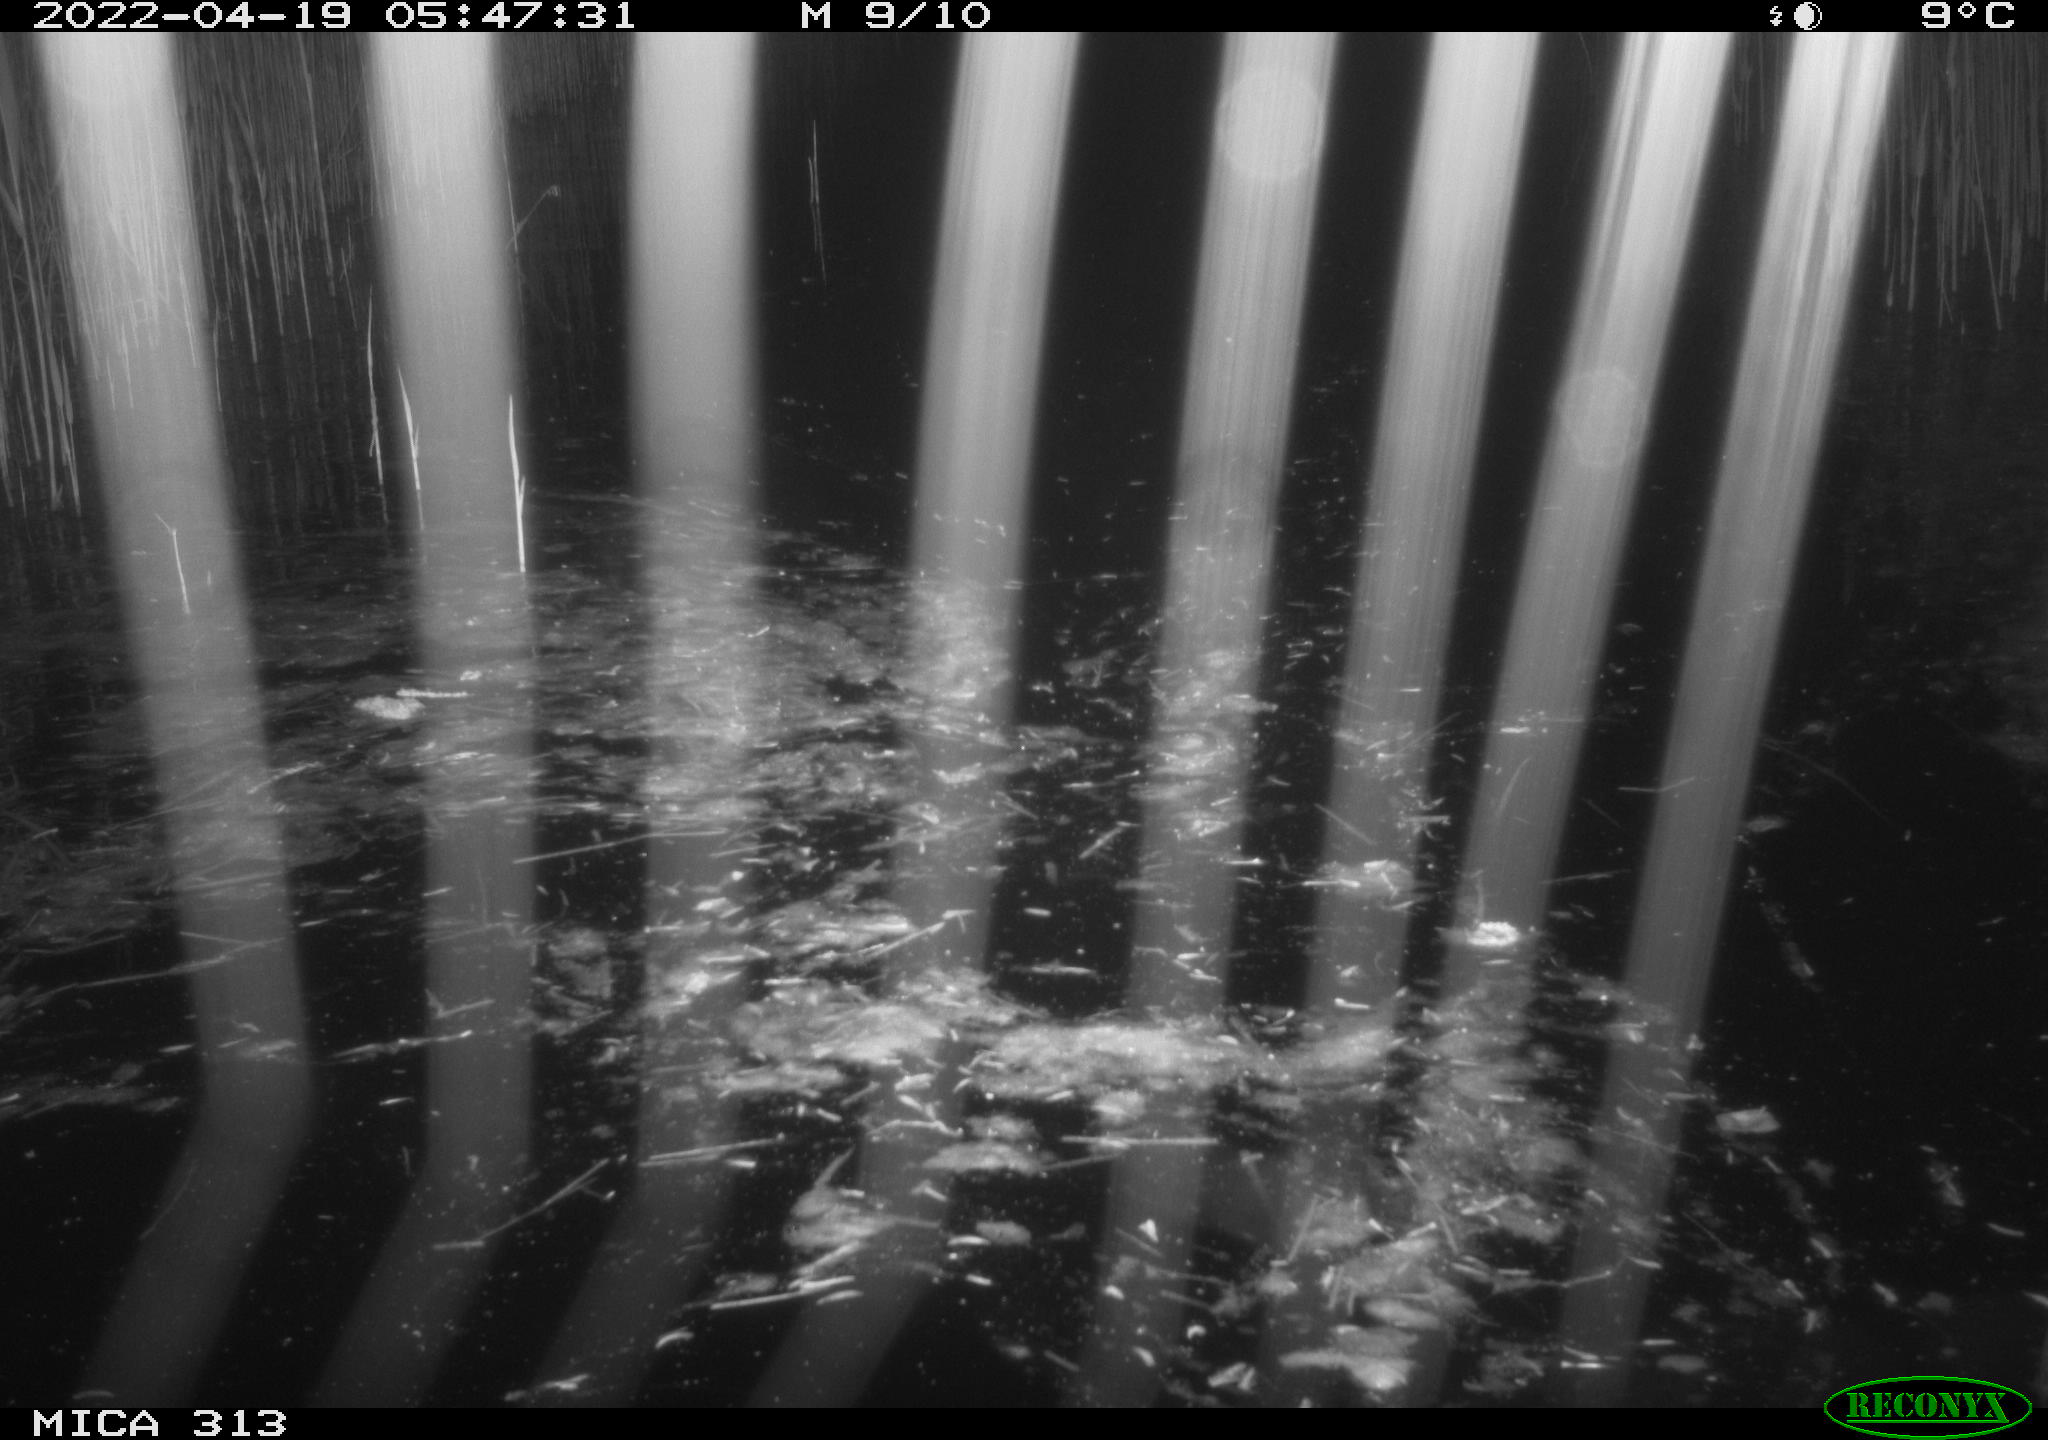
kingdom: Animalia
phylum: Chordata
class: Aves
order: Anseriformes
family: Anatidae
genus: Anas
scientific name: Anas platyrhynchos
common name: Mallard
